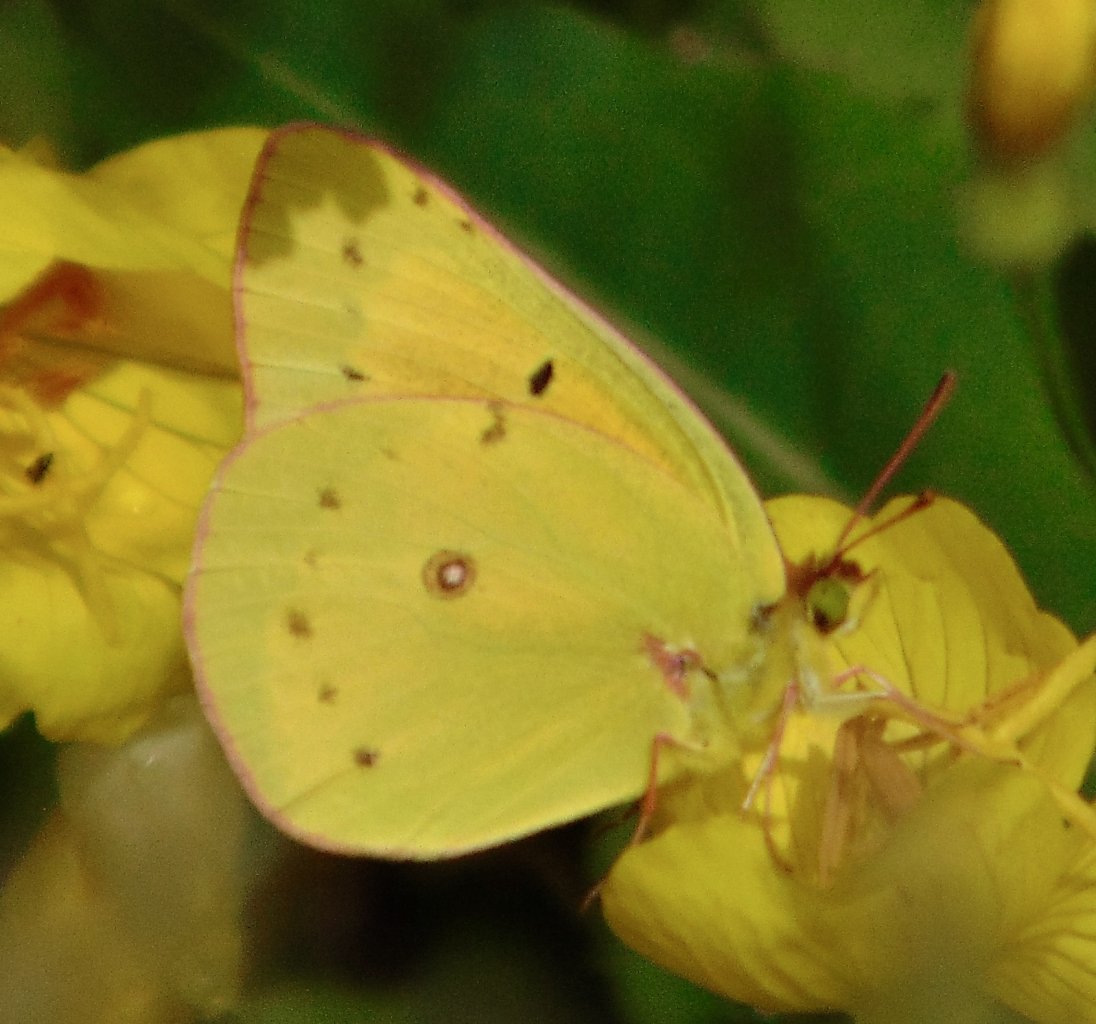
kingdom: Animalia
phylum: Arthropoda
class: Insecta
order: Lepidoptera
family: Pieridae
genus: Colias
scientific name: Colias eurytheme
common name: Orange Sulphur
